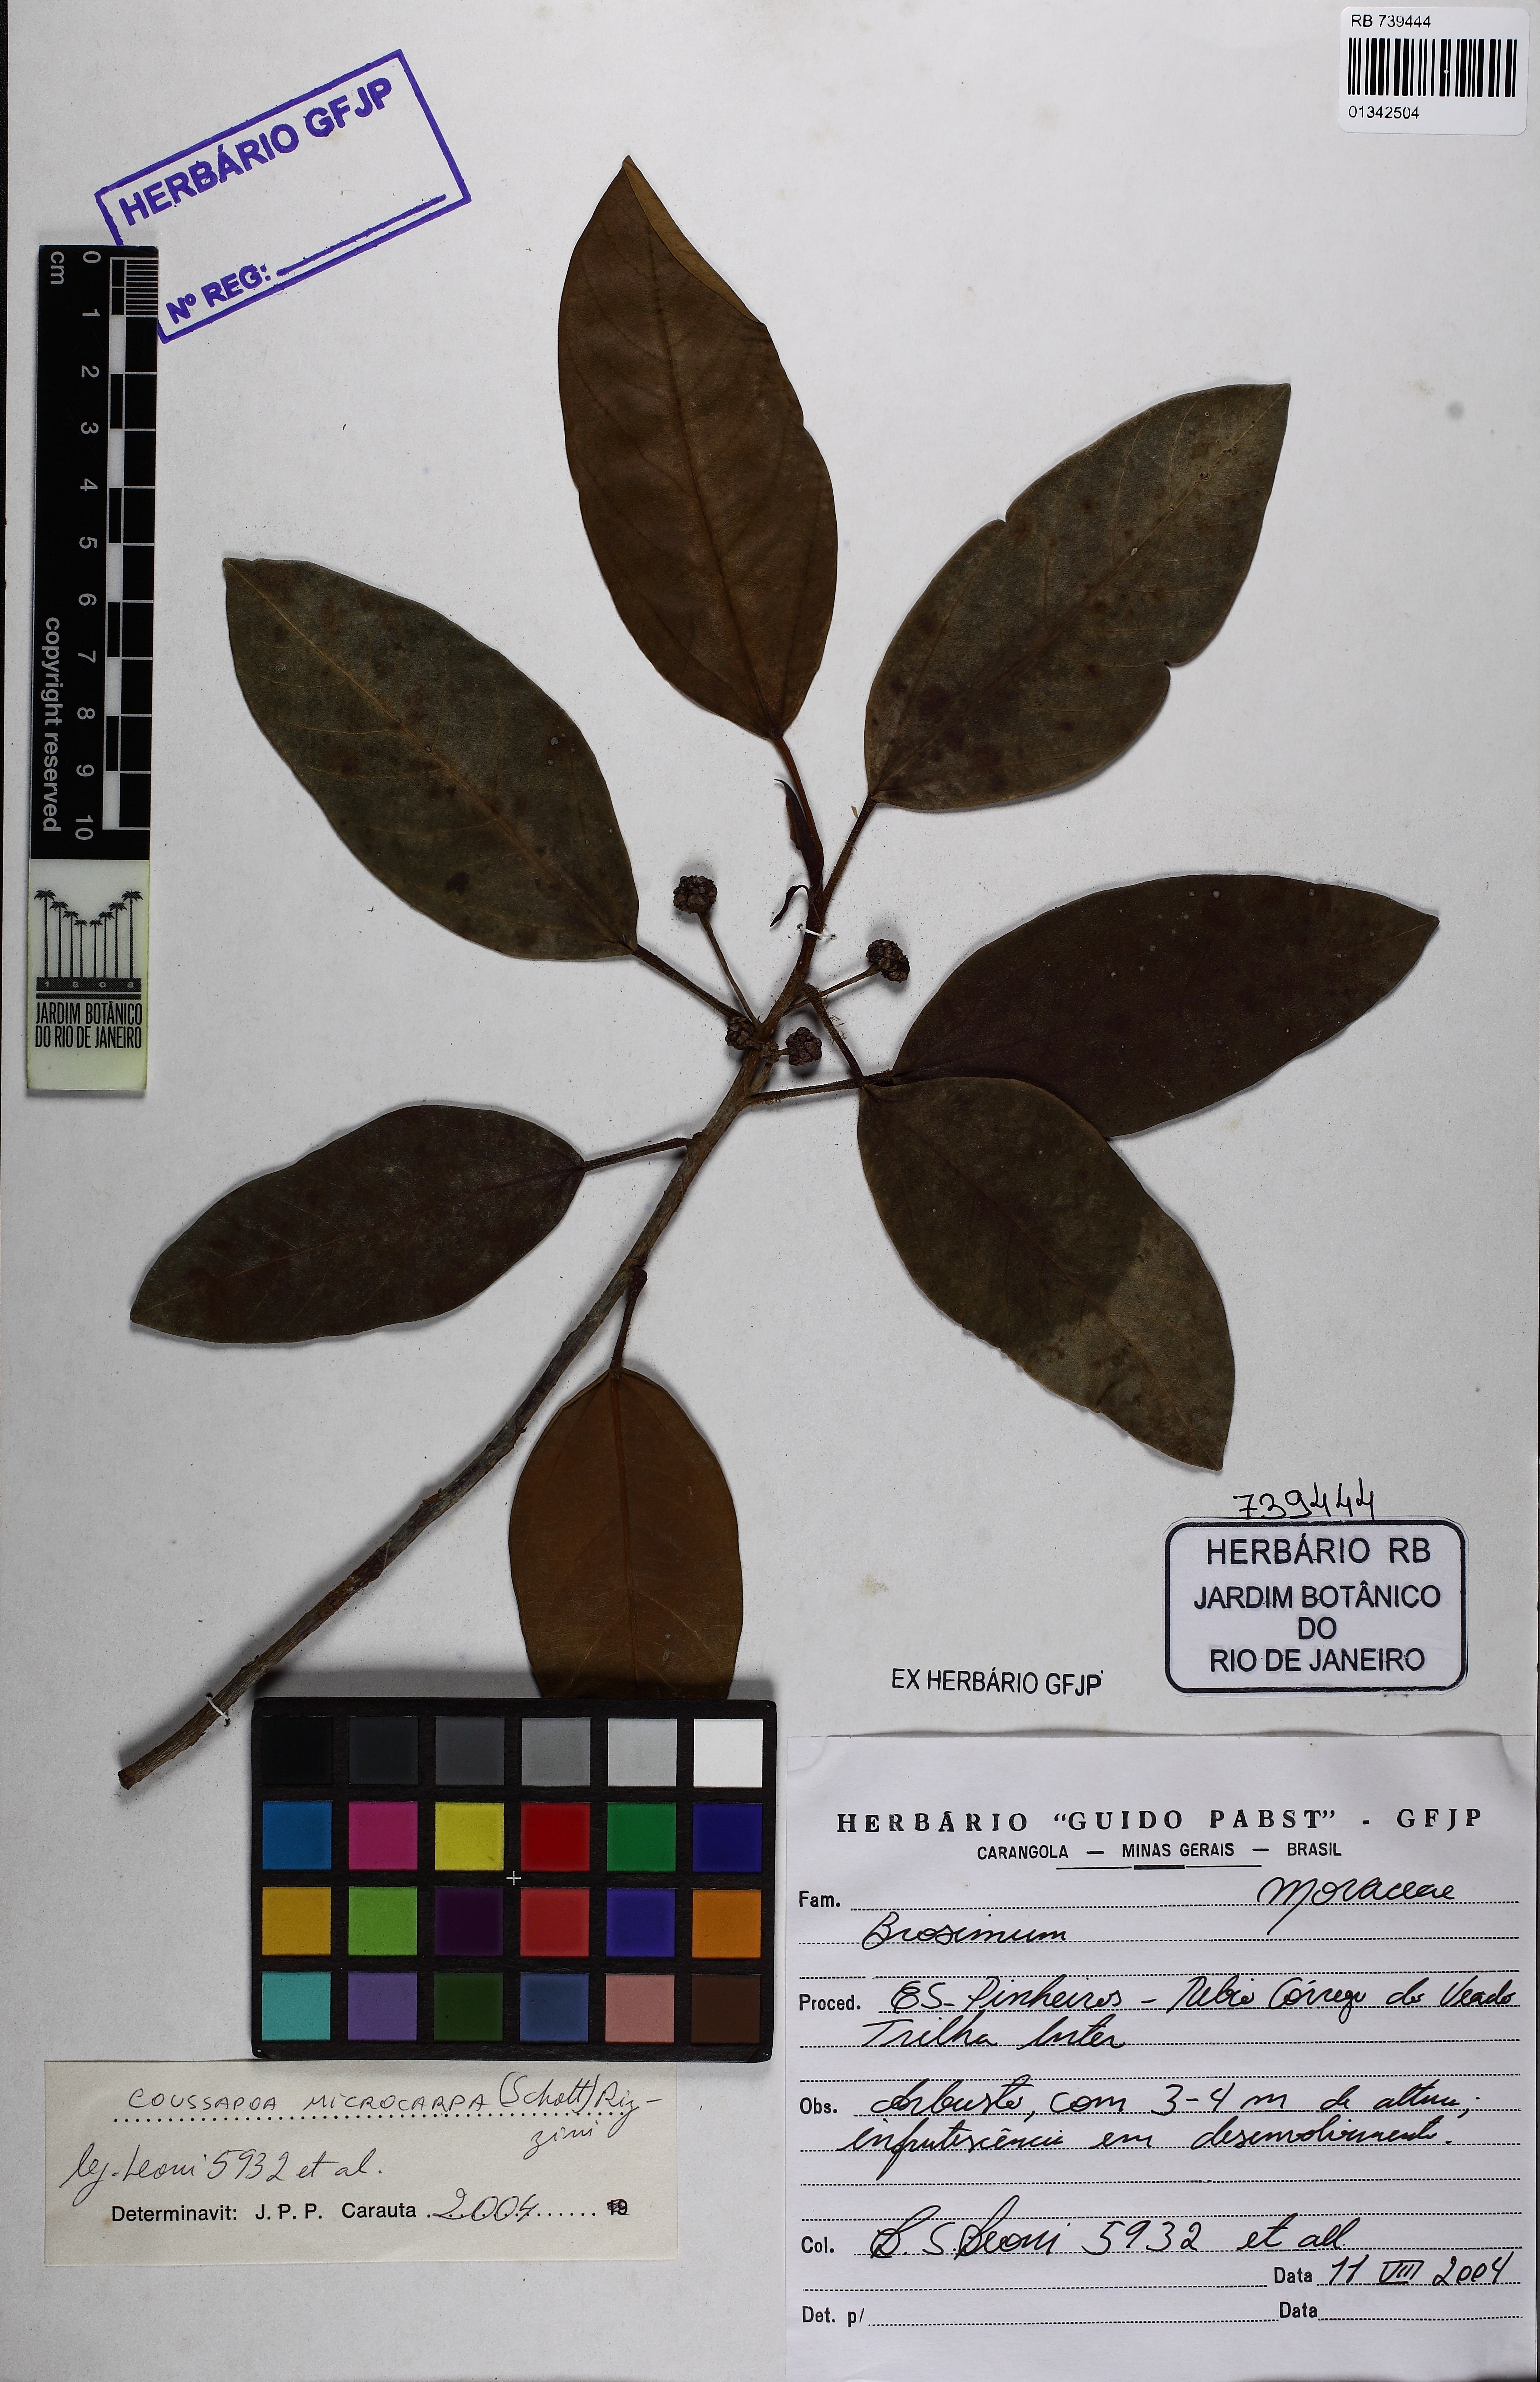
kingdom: Plantae
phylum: Tracheophyta
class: Magnoliopsida
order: Rosales
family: Urticaceae
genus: Coussapoa
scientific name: Coussapoa microcarpa
